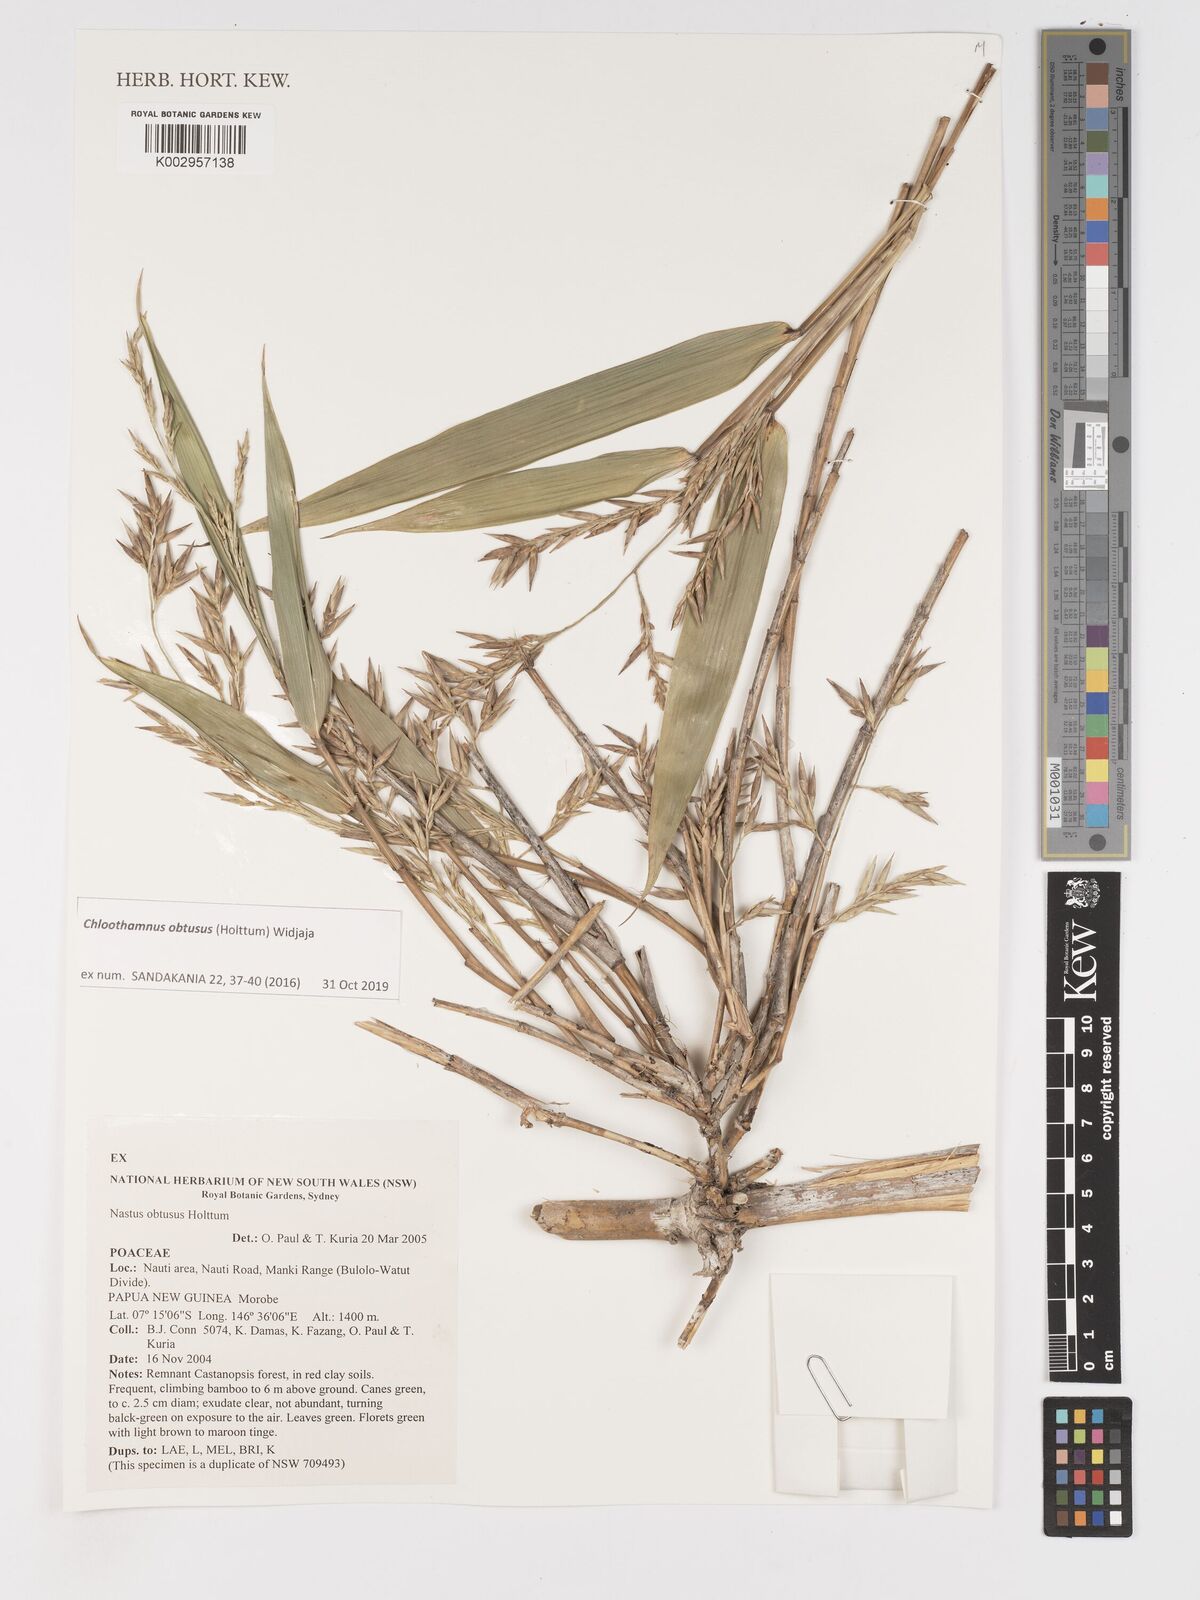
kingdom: Plantae
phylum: Tracheophyta
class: Liliopsida
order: Poales
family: Poaceae
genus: Chloothamnus
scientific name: Chloothamnus obtusus
